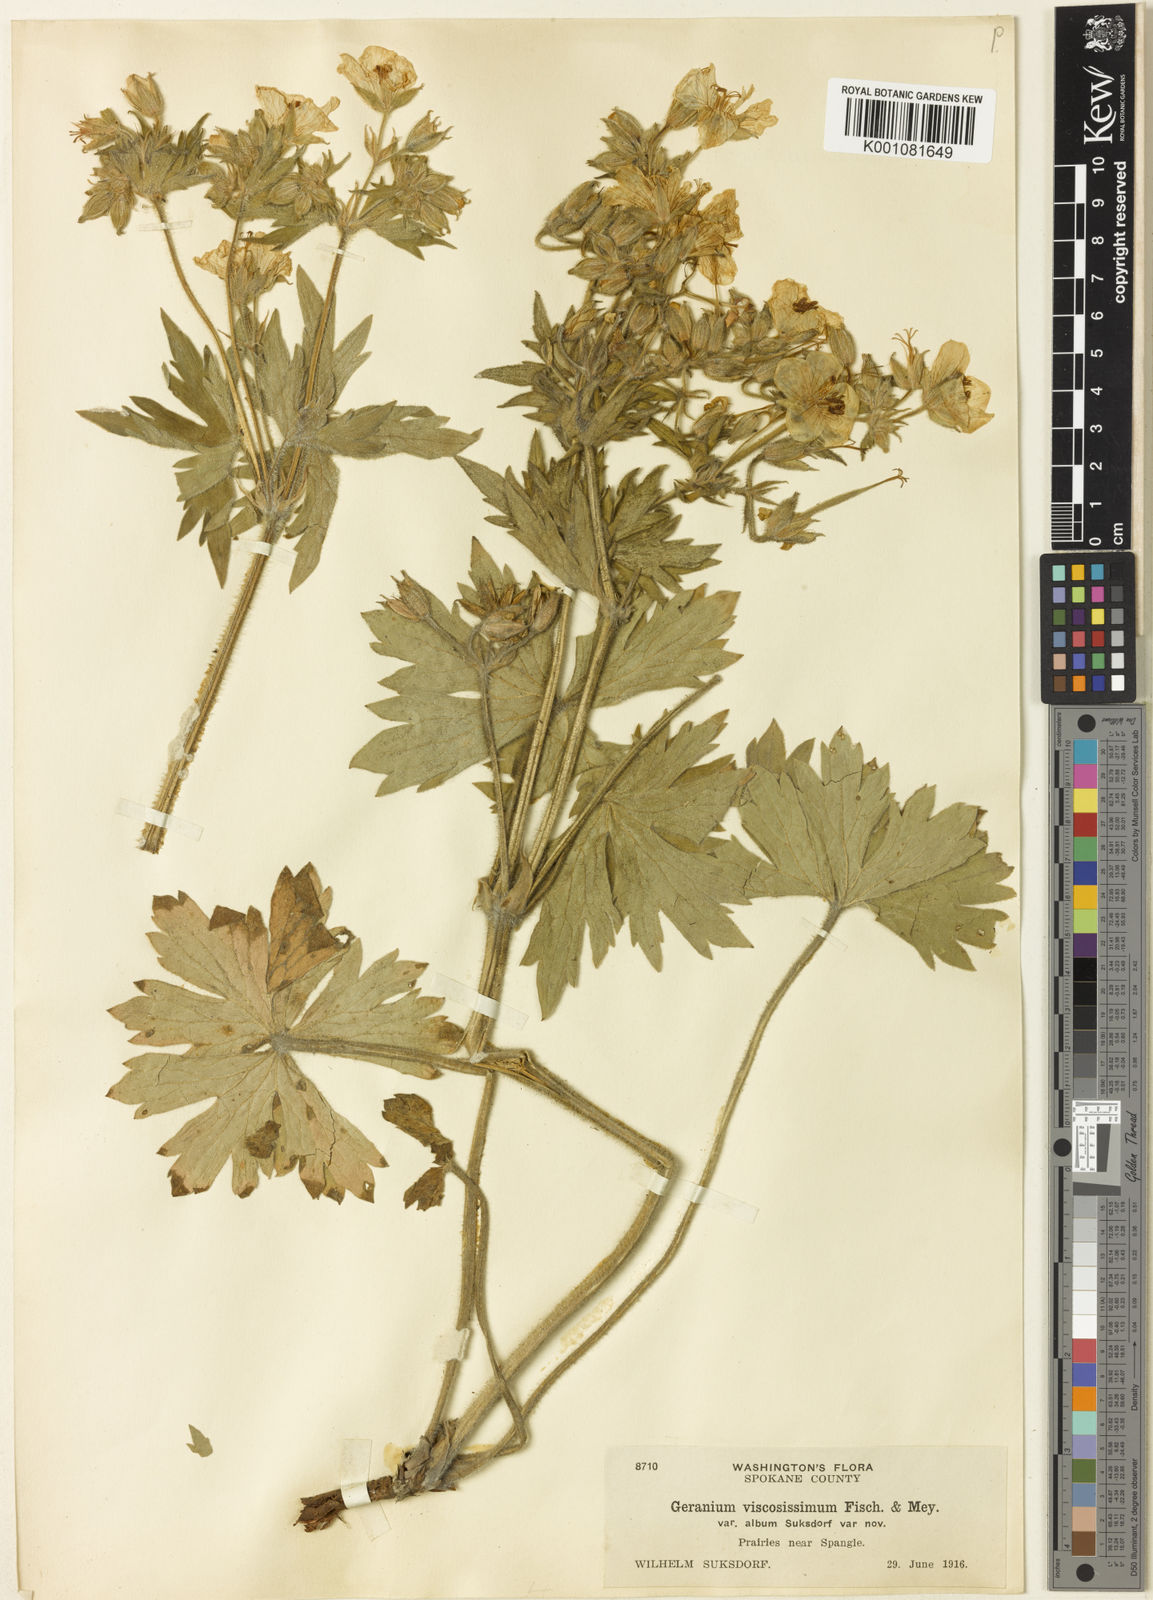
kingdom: Plantae
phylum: Tracheophyta
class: Magnoliopsida
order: Geraniales
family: Geraniaceae
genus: Geranium
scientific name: Geranium viscosissimum
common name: Purple geranium
